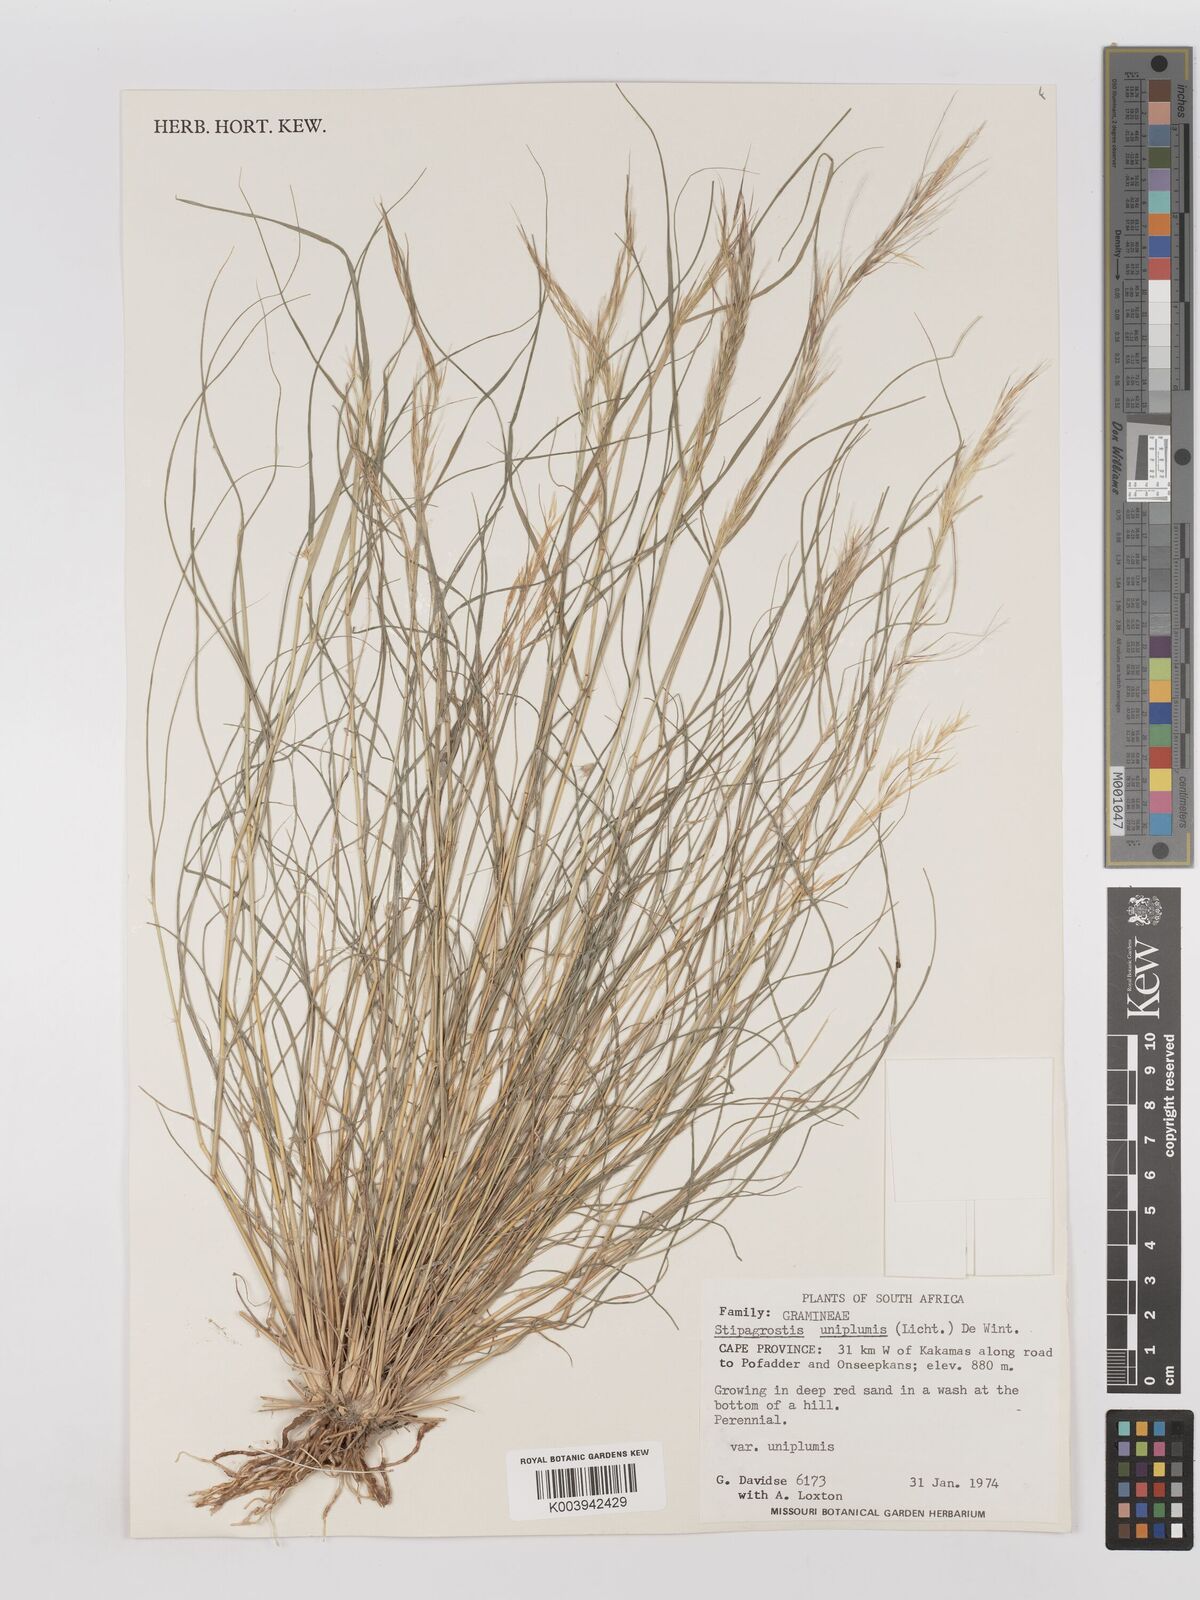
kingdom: Plantae
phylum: Tracheophyta
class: Liliopsida
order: Poales
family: Poaceae
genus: Stipagrostis
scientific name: Stipagrostis uniplumis
